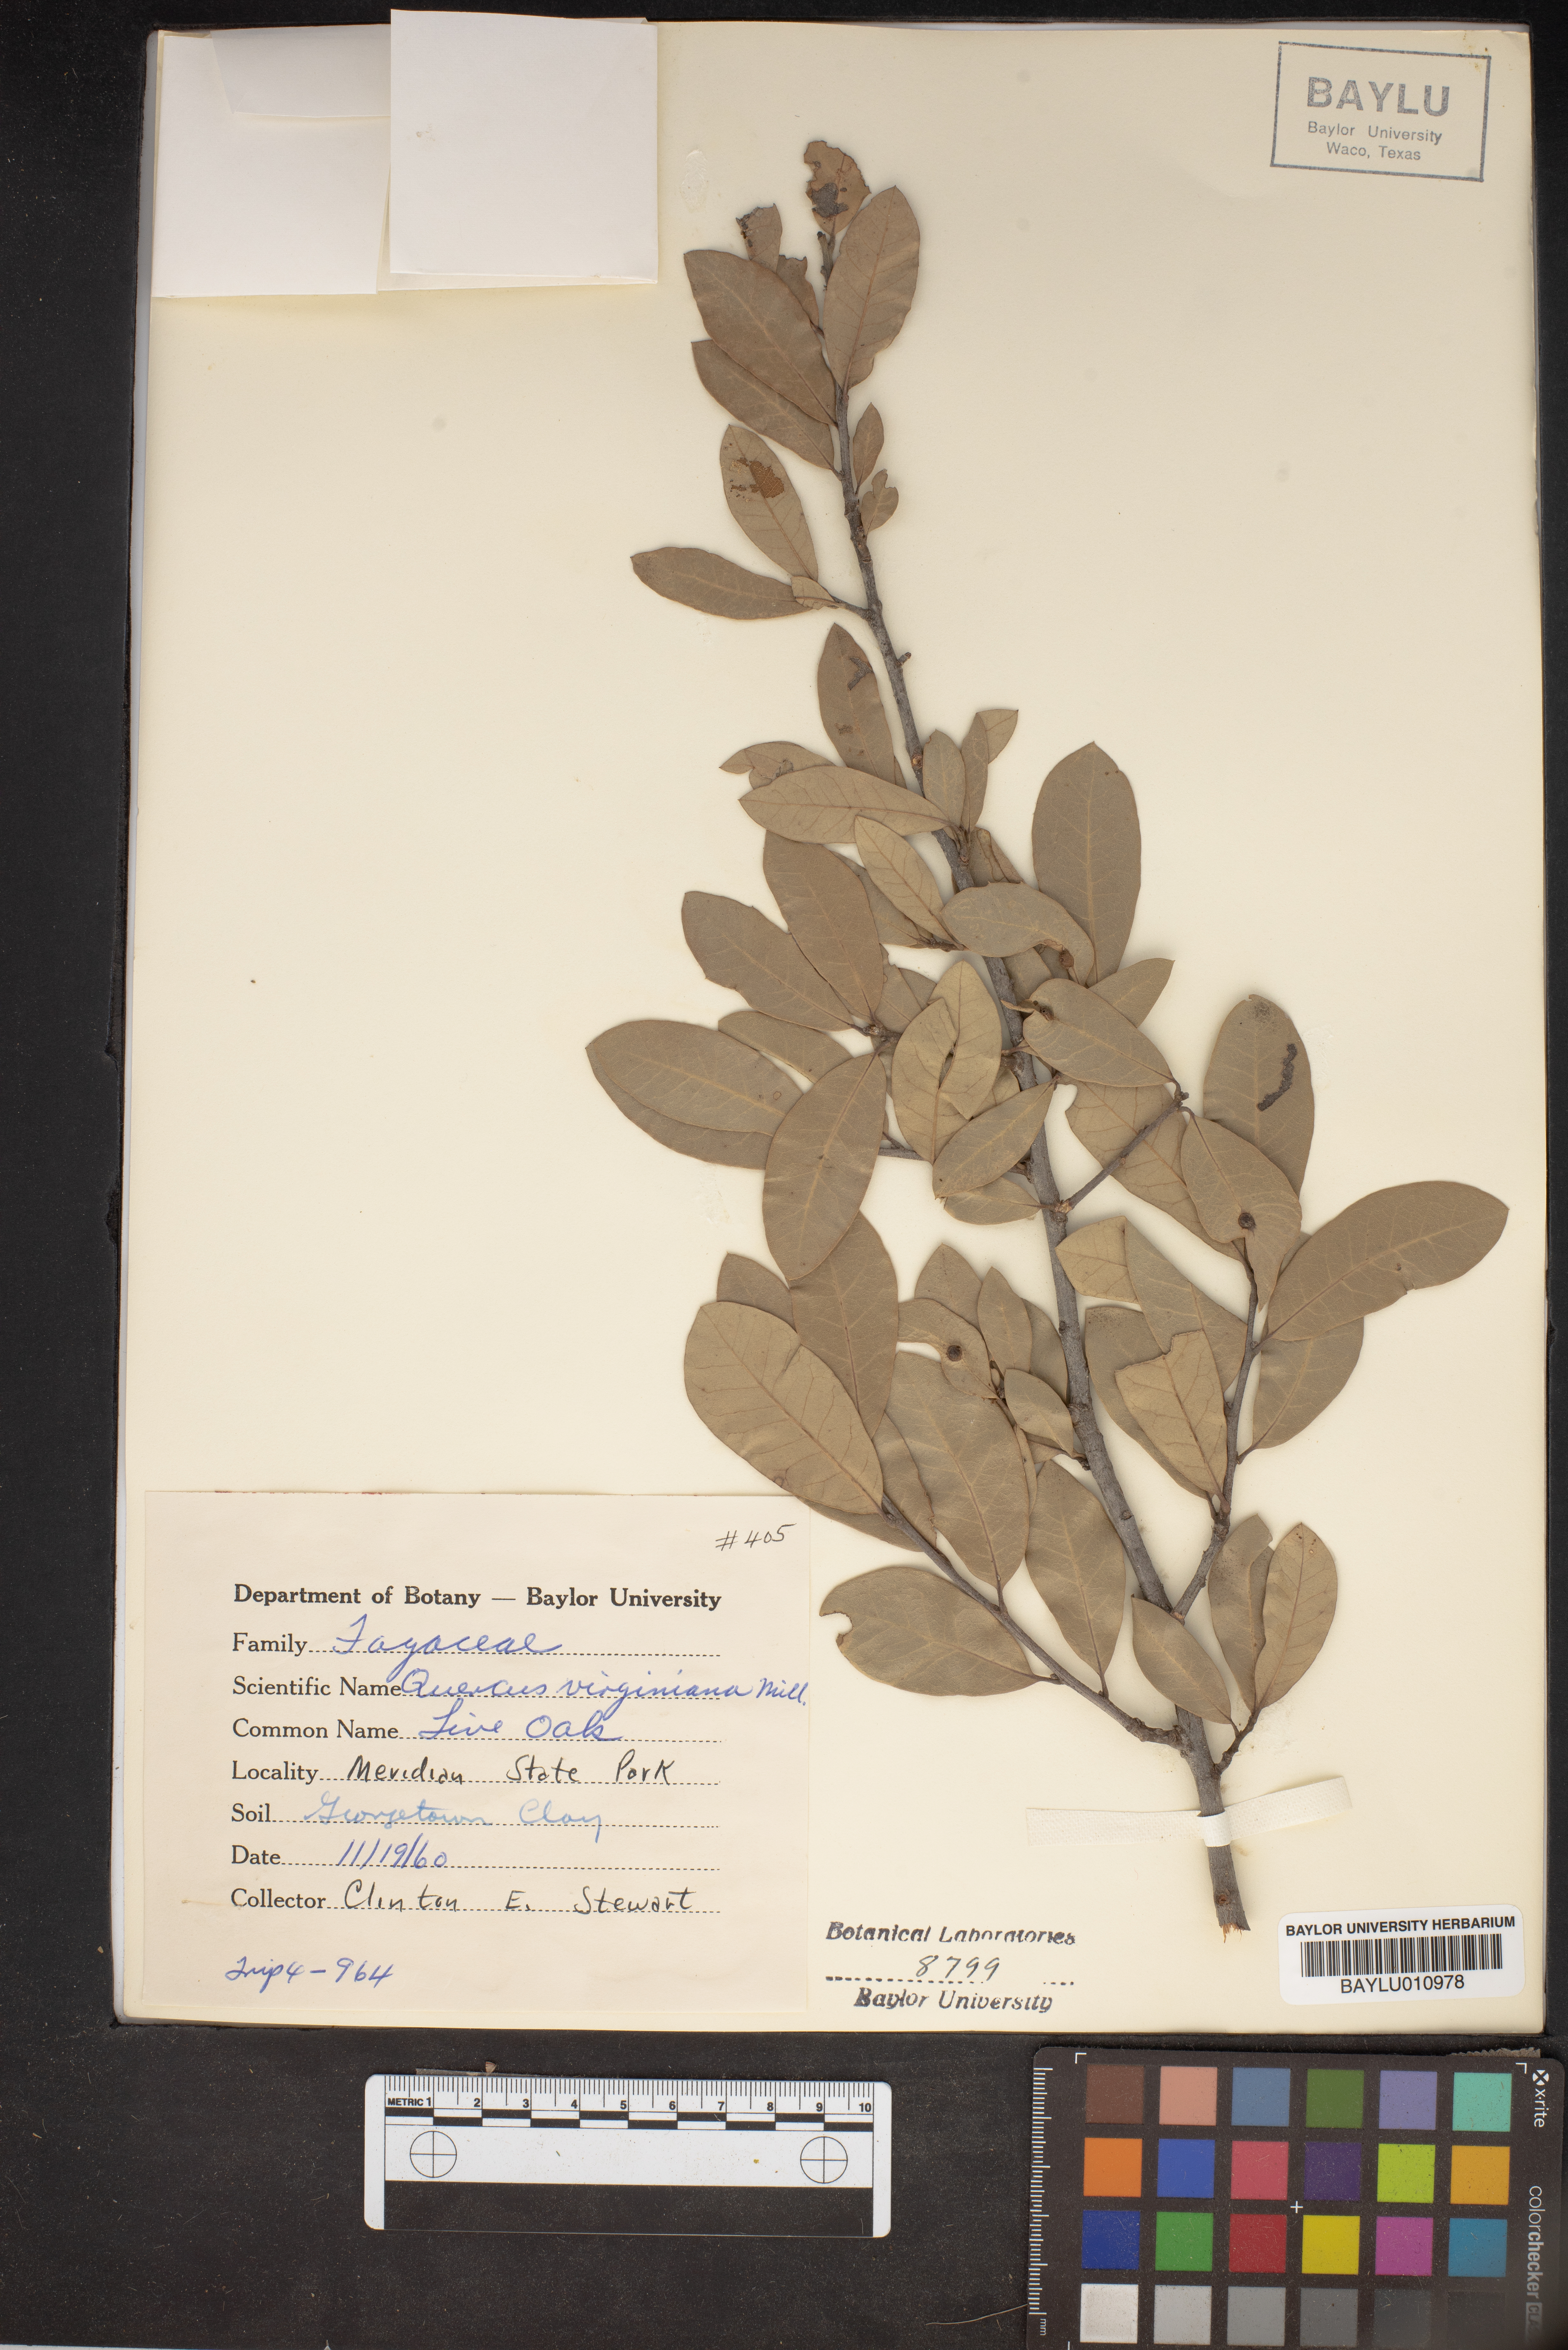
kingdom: Plantae
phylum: Tracheophyta
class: Magnoliopsida
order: Fagales
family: Fagaceae
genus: Quercus
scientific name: Quercus virginiana
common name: Southern live oak
